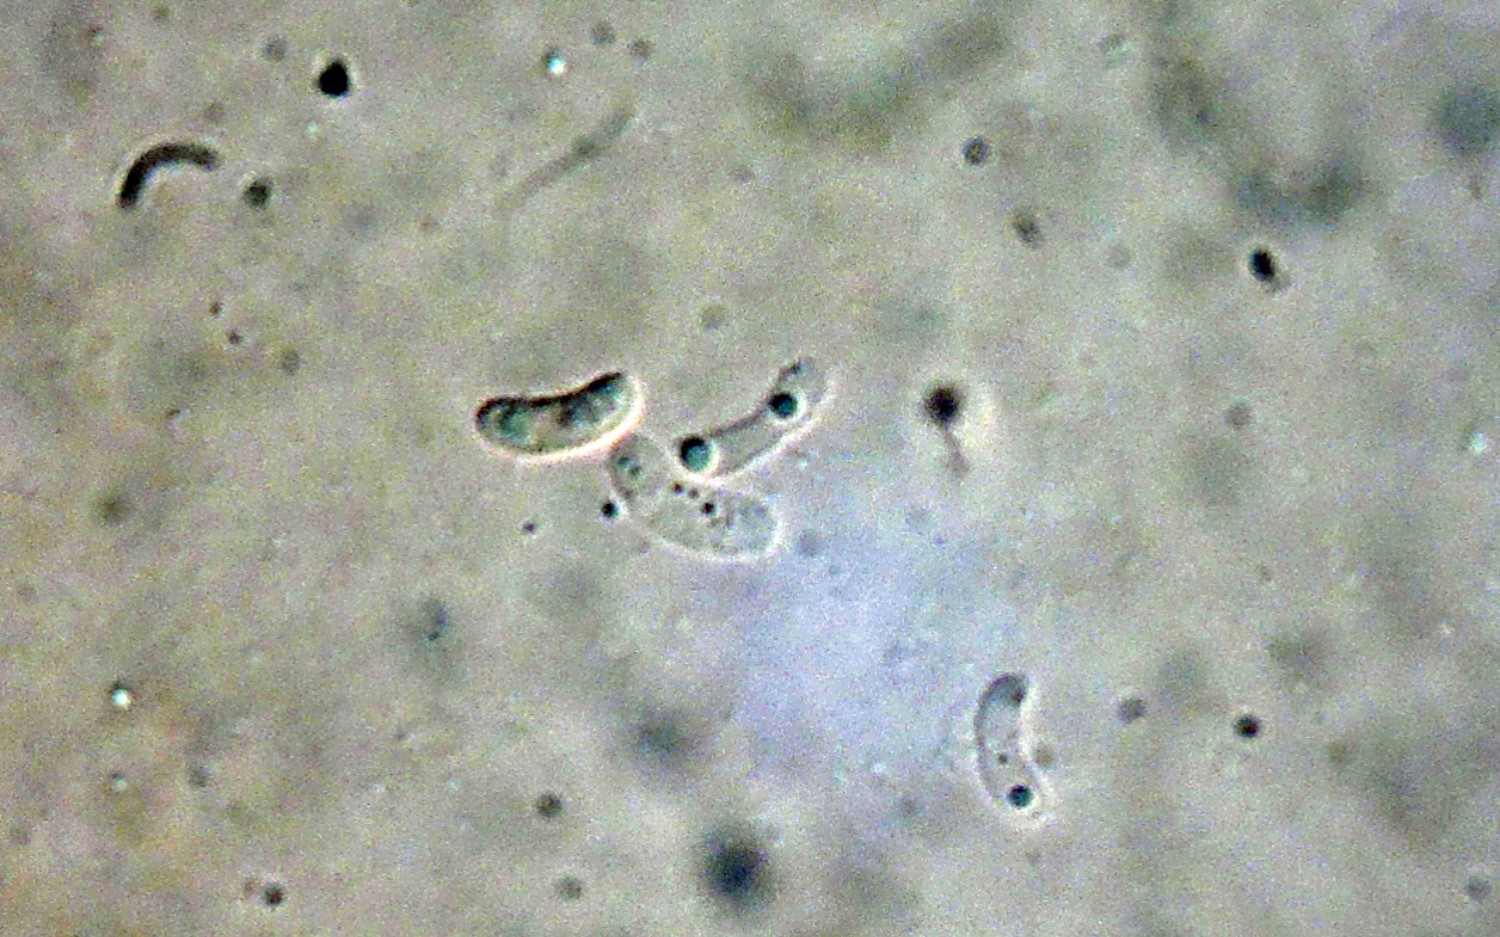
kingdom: Fungi
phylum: Basidiomycota
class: Agaricomycetes
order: Polyporales
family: Irpicaceae
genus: Ceriporia
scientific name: Ceriporia purpurea
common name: purpur-voksporesvamp
